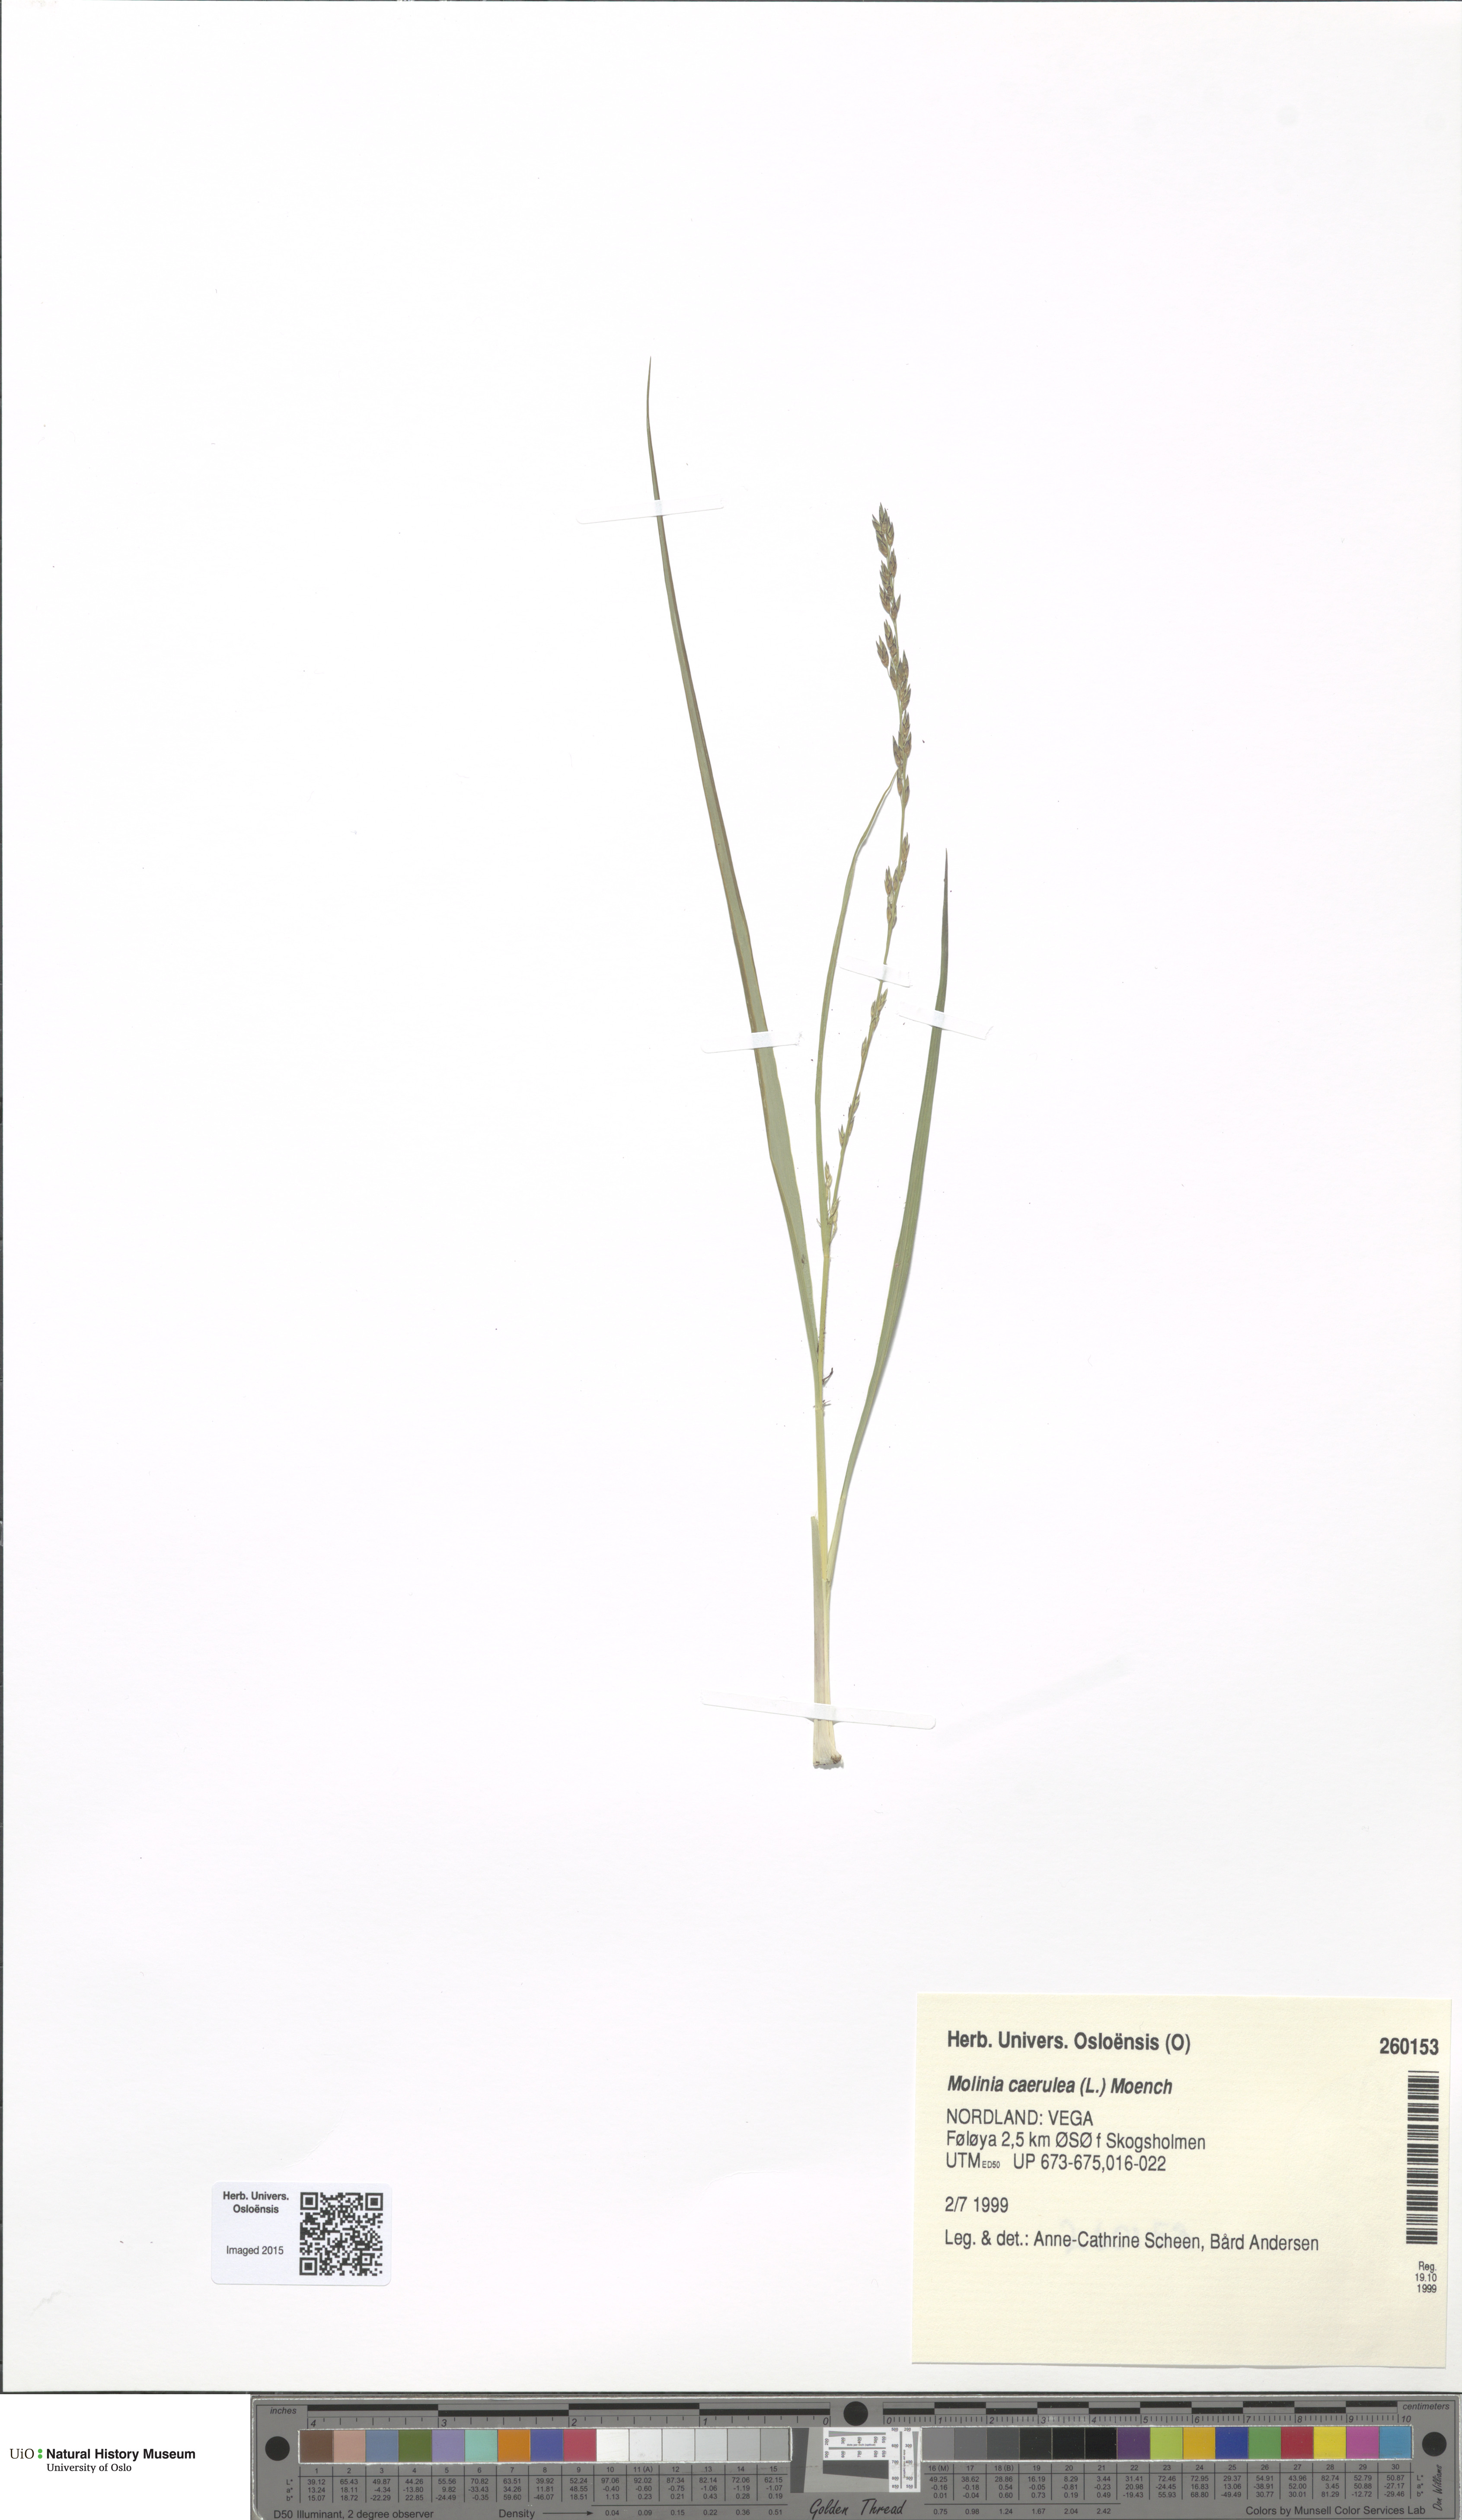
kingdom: Plantae
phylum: Tracheophyta
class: Liliopsida
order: Poales
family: Poaceae
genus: Molinia
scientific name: Molinia caerulea
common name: Purple moor-grass
